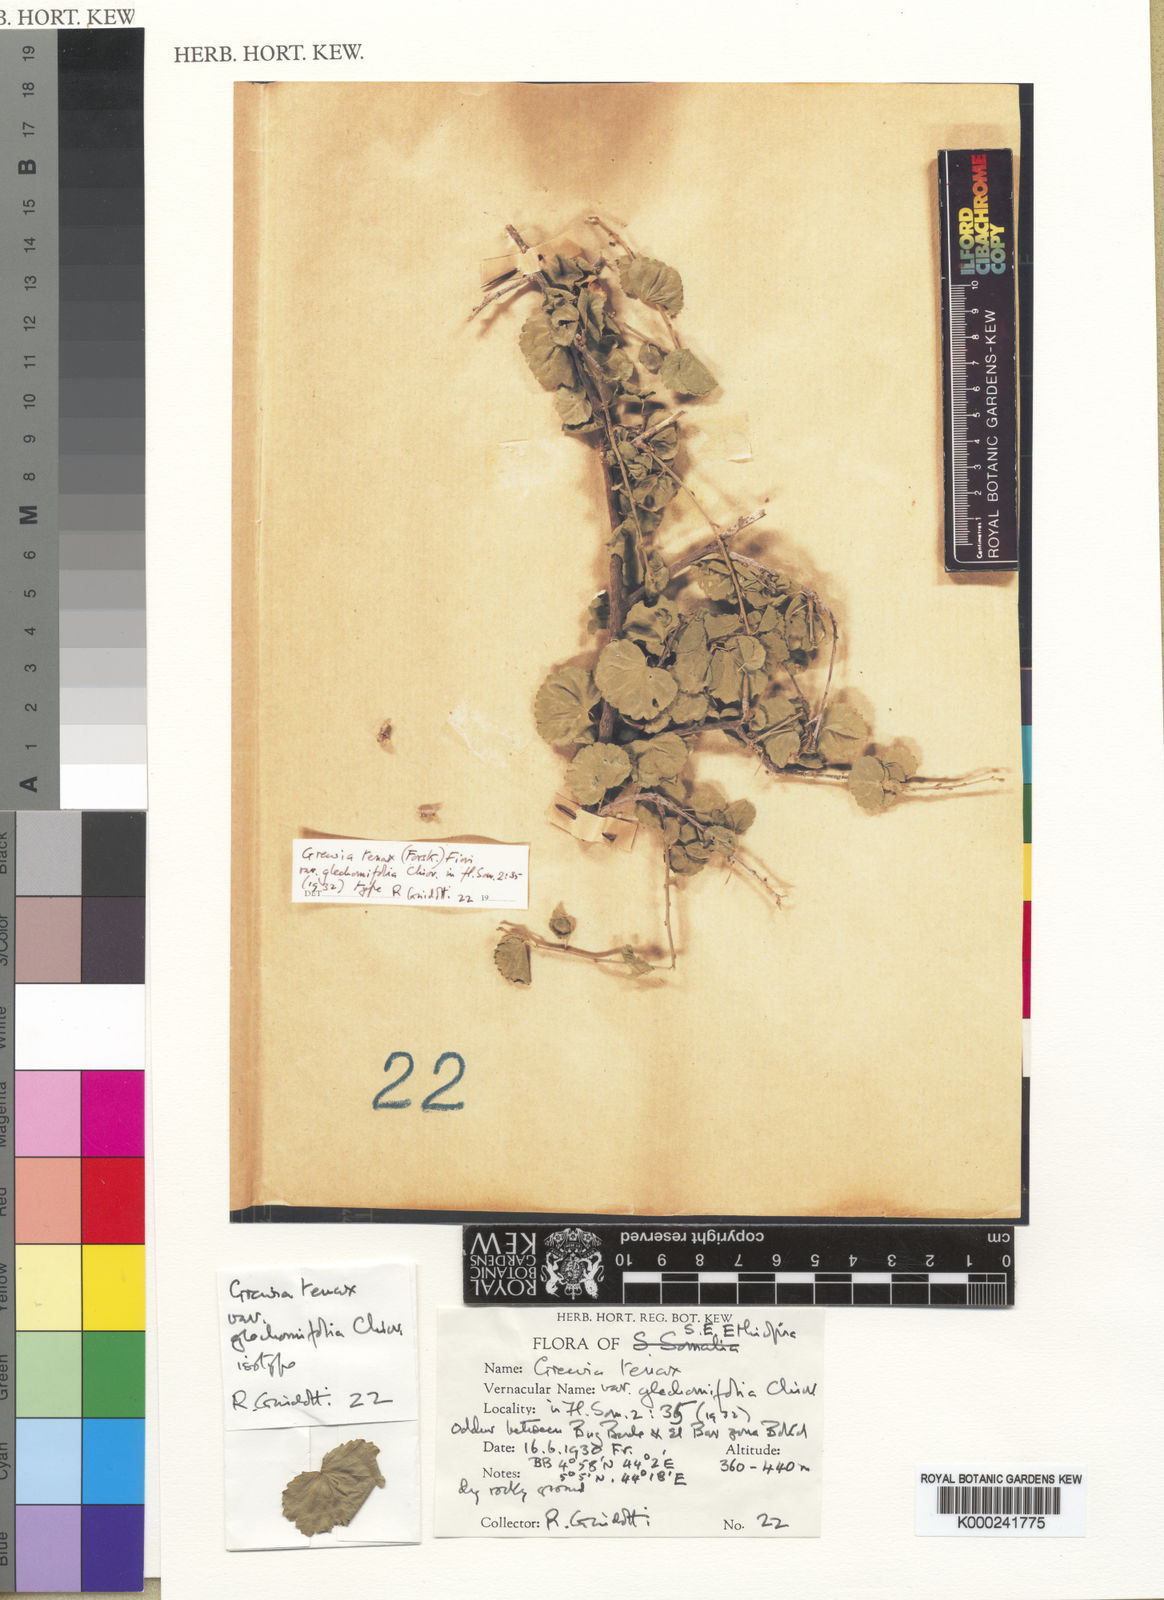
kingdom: Plantae
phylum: Tracheophyta
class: Magnoliopsida
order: Malvales
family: Malvaceae
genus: Grewia
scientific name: Grewia tenax
